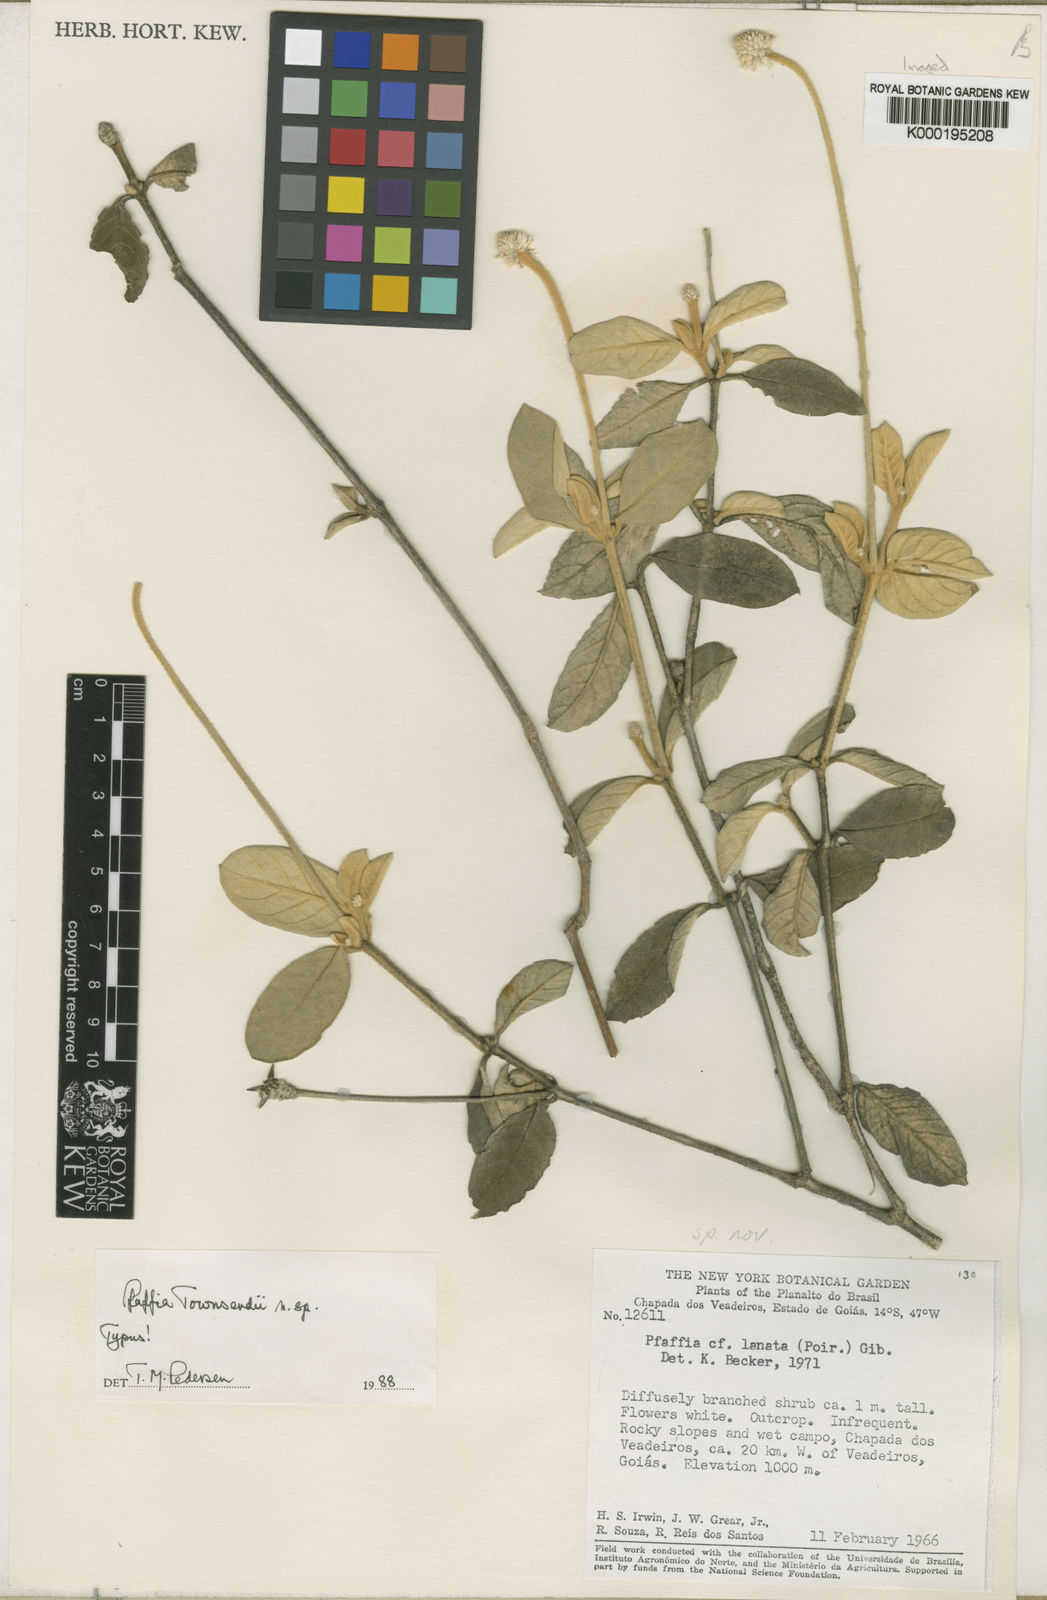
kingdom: Plantae
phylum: Tracheophyta
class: Magnoliopsida
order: Caryophyllales
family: Amaranthaceae
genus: Pfaffia
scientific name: Pfaffia townsendii
